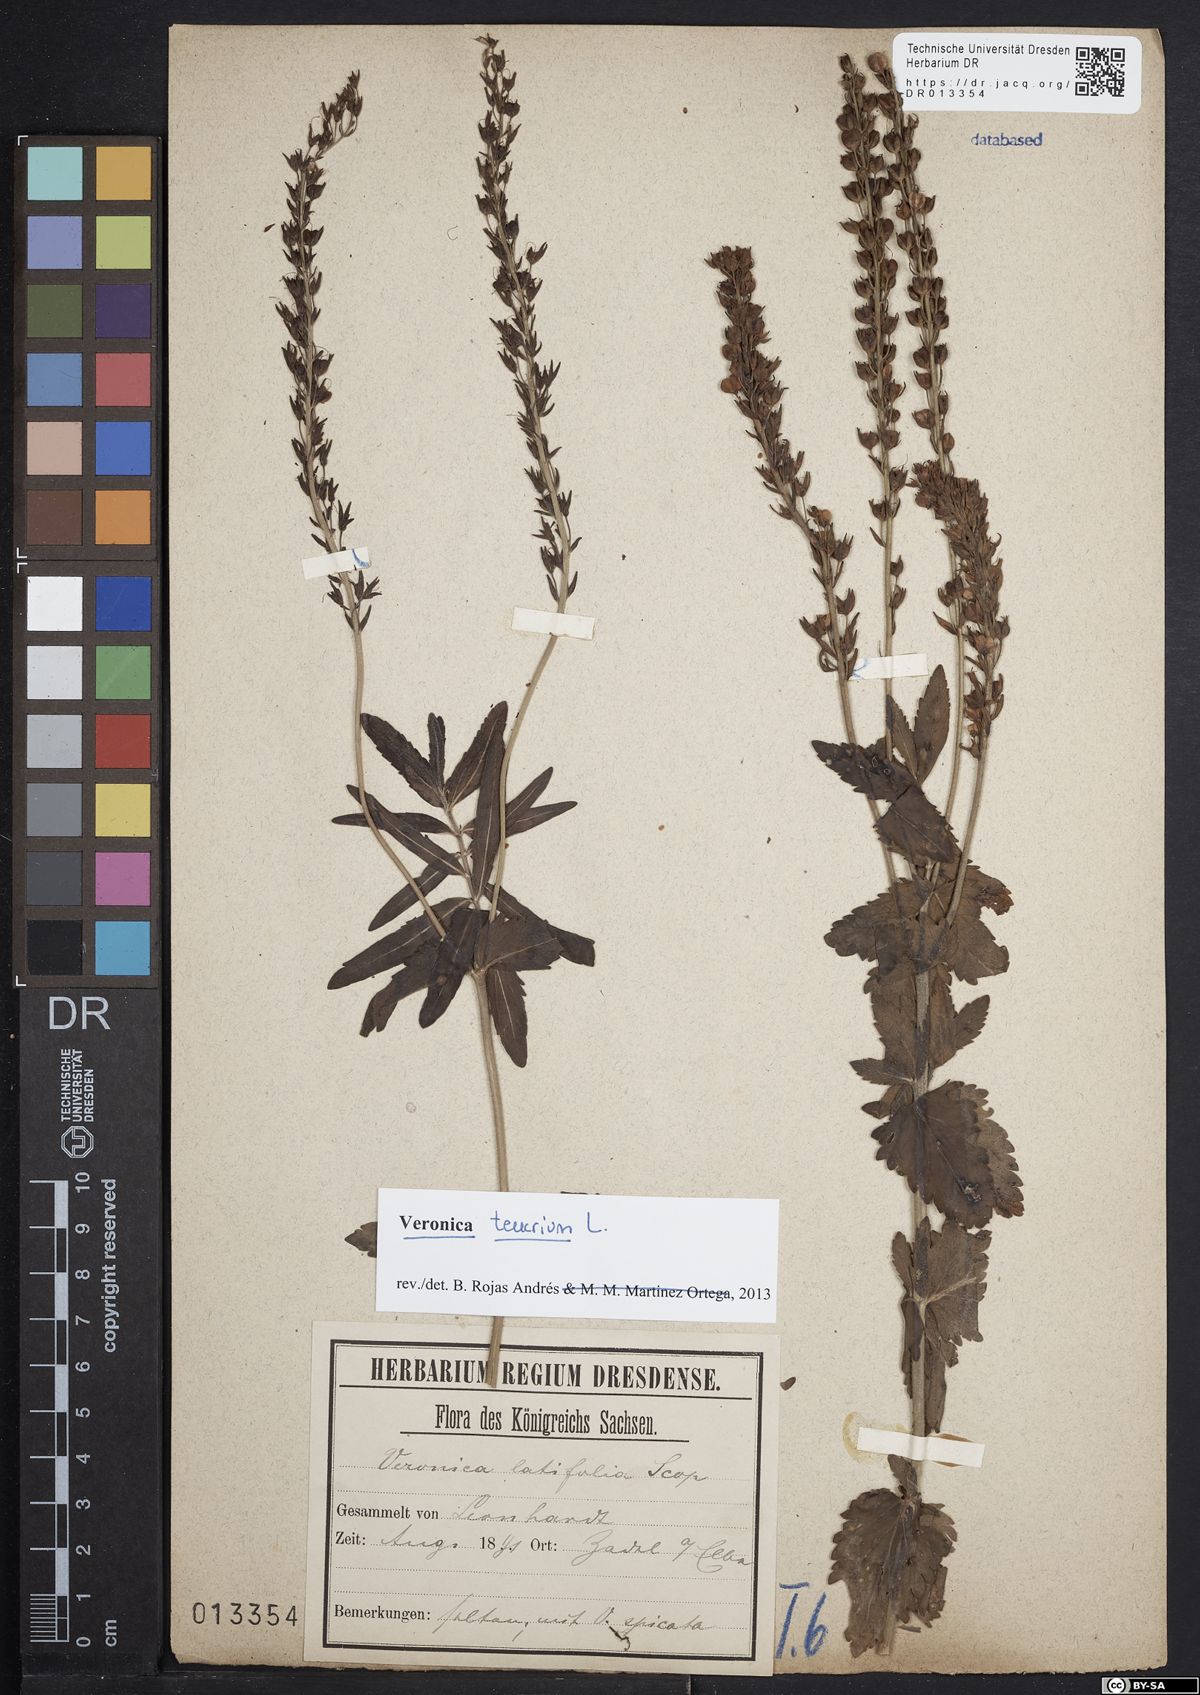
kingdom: Plantae
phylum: Tracheophyta
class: Magnoliopsida
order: Lamiales
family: Plantaginaceae
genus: Veronica
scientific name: Veronica teucrium
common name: Large speedwell
